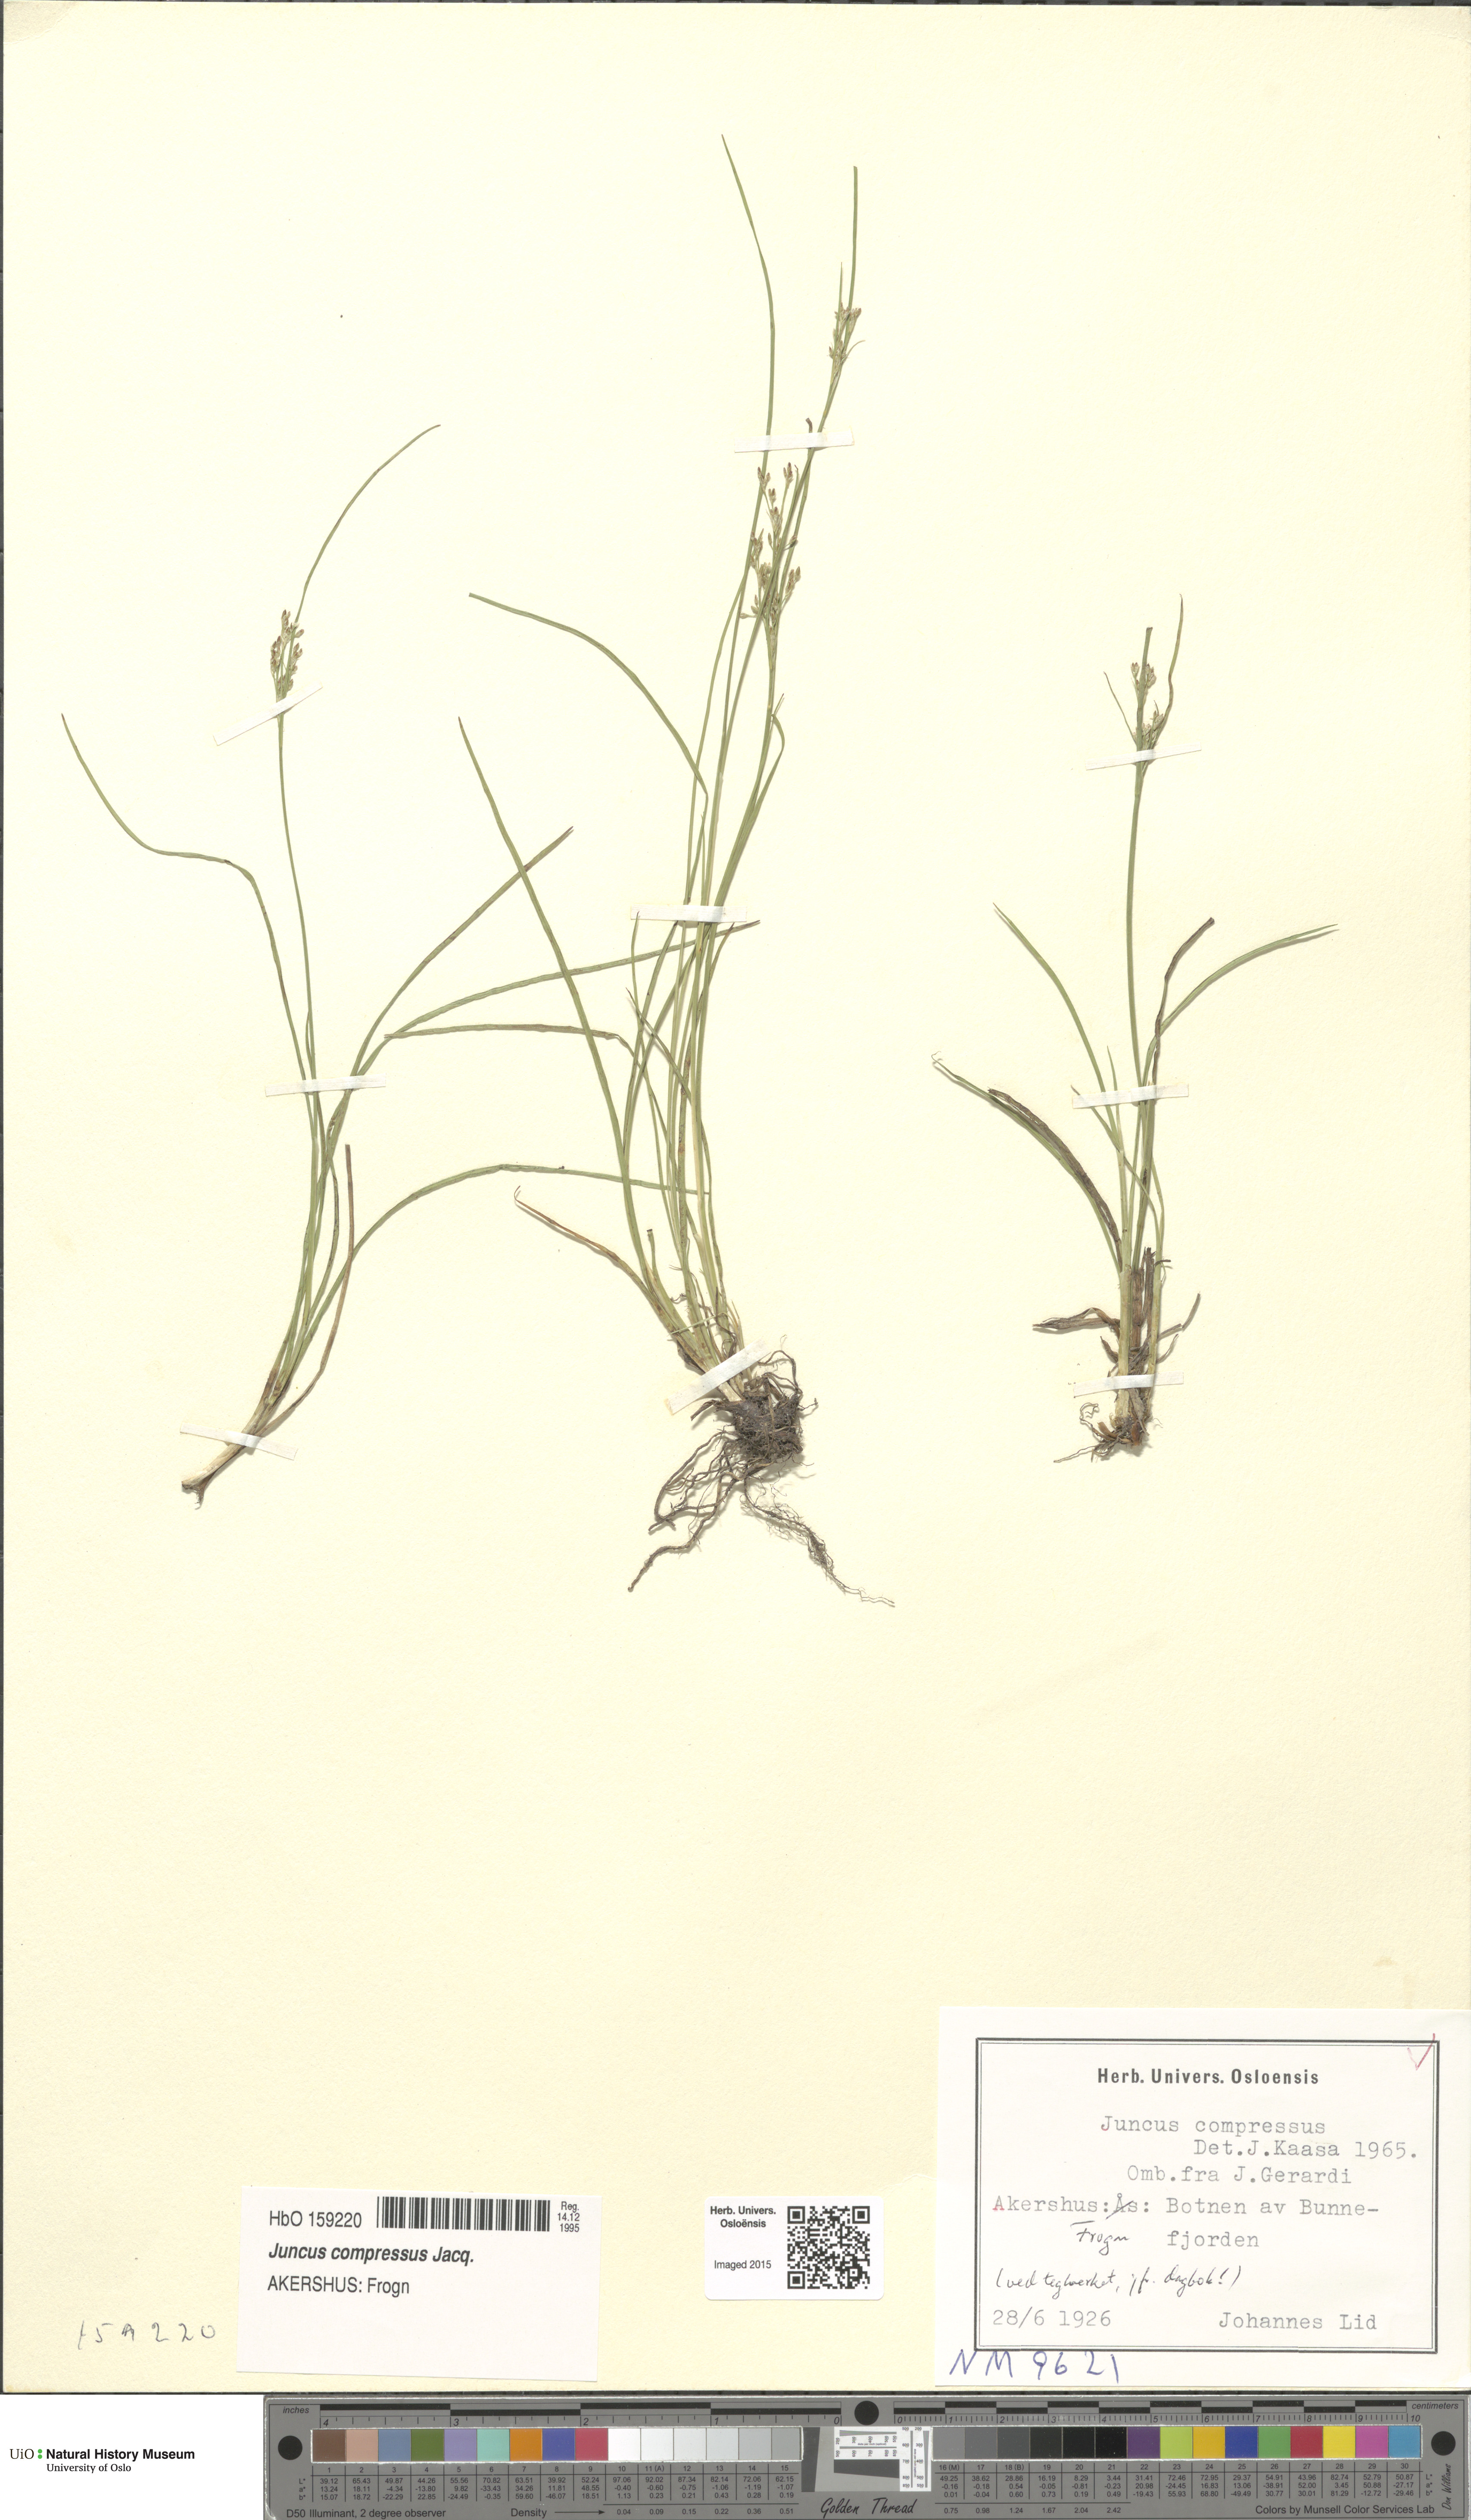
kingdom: Plantae
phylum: Tracheophyta
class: Liliopsida
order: Poales
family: Juncaceae
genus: Juncus
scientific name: Juncus compressus
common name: Round-fruited rush
